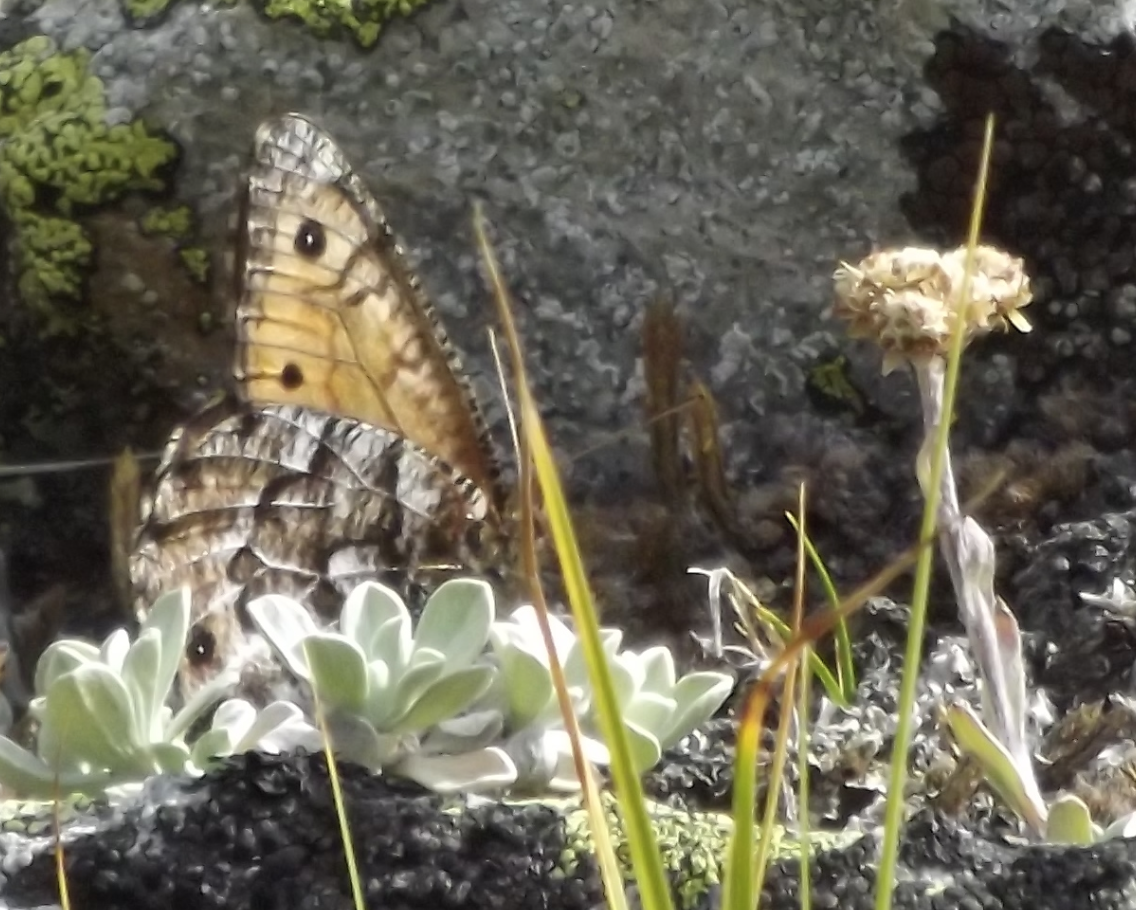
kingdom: Animalia
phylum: Arthropoda
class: Insecta
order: Lepidoptera
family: Nymphalidae
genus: Oeneis
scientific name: Oeneis chryxus
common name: Chryxus Arctic
